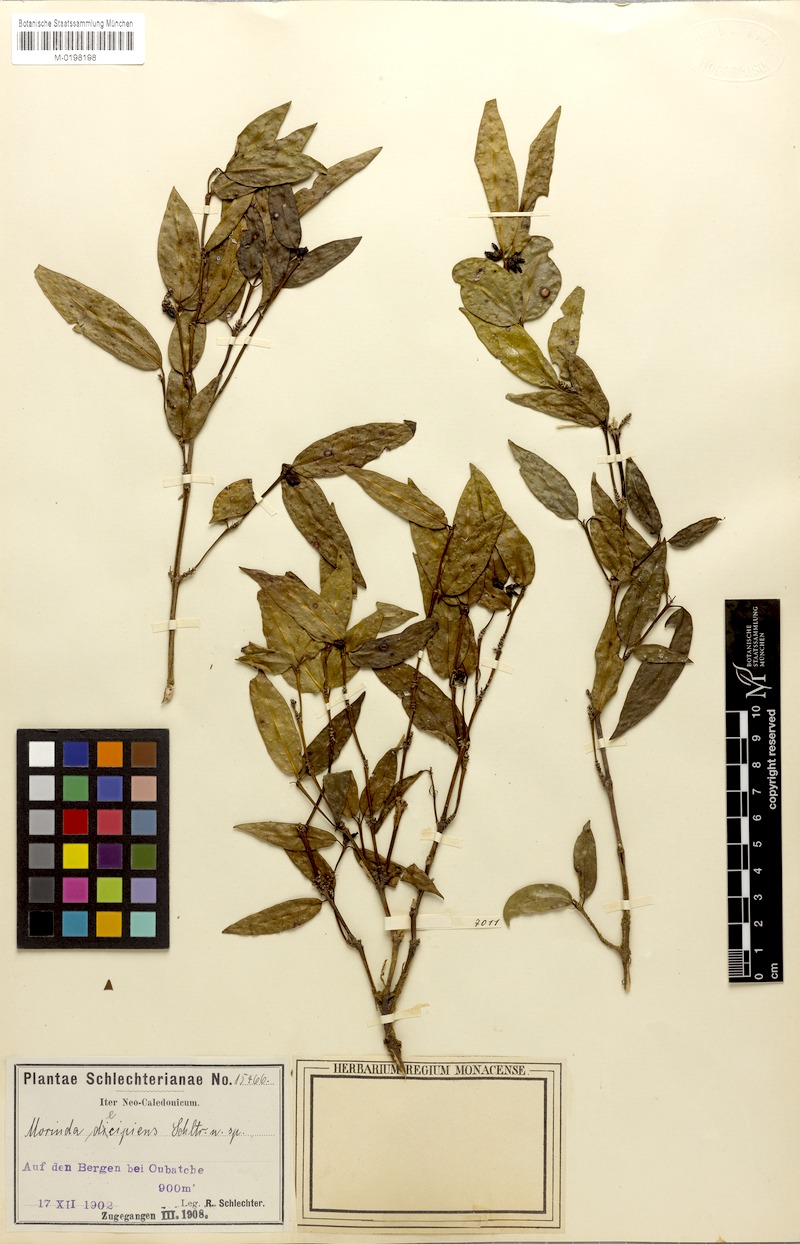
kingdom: Plantae
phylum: Tracheophyta
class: Magnoliopsida
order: Gentianales
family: Rubiaceae
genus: Gynochthodes
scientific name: Gynochthodes decipiens
